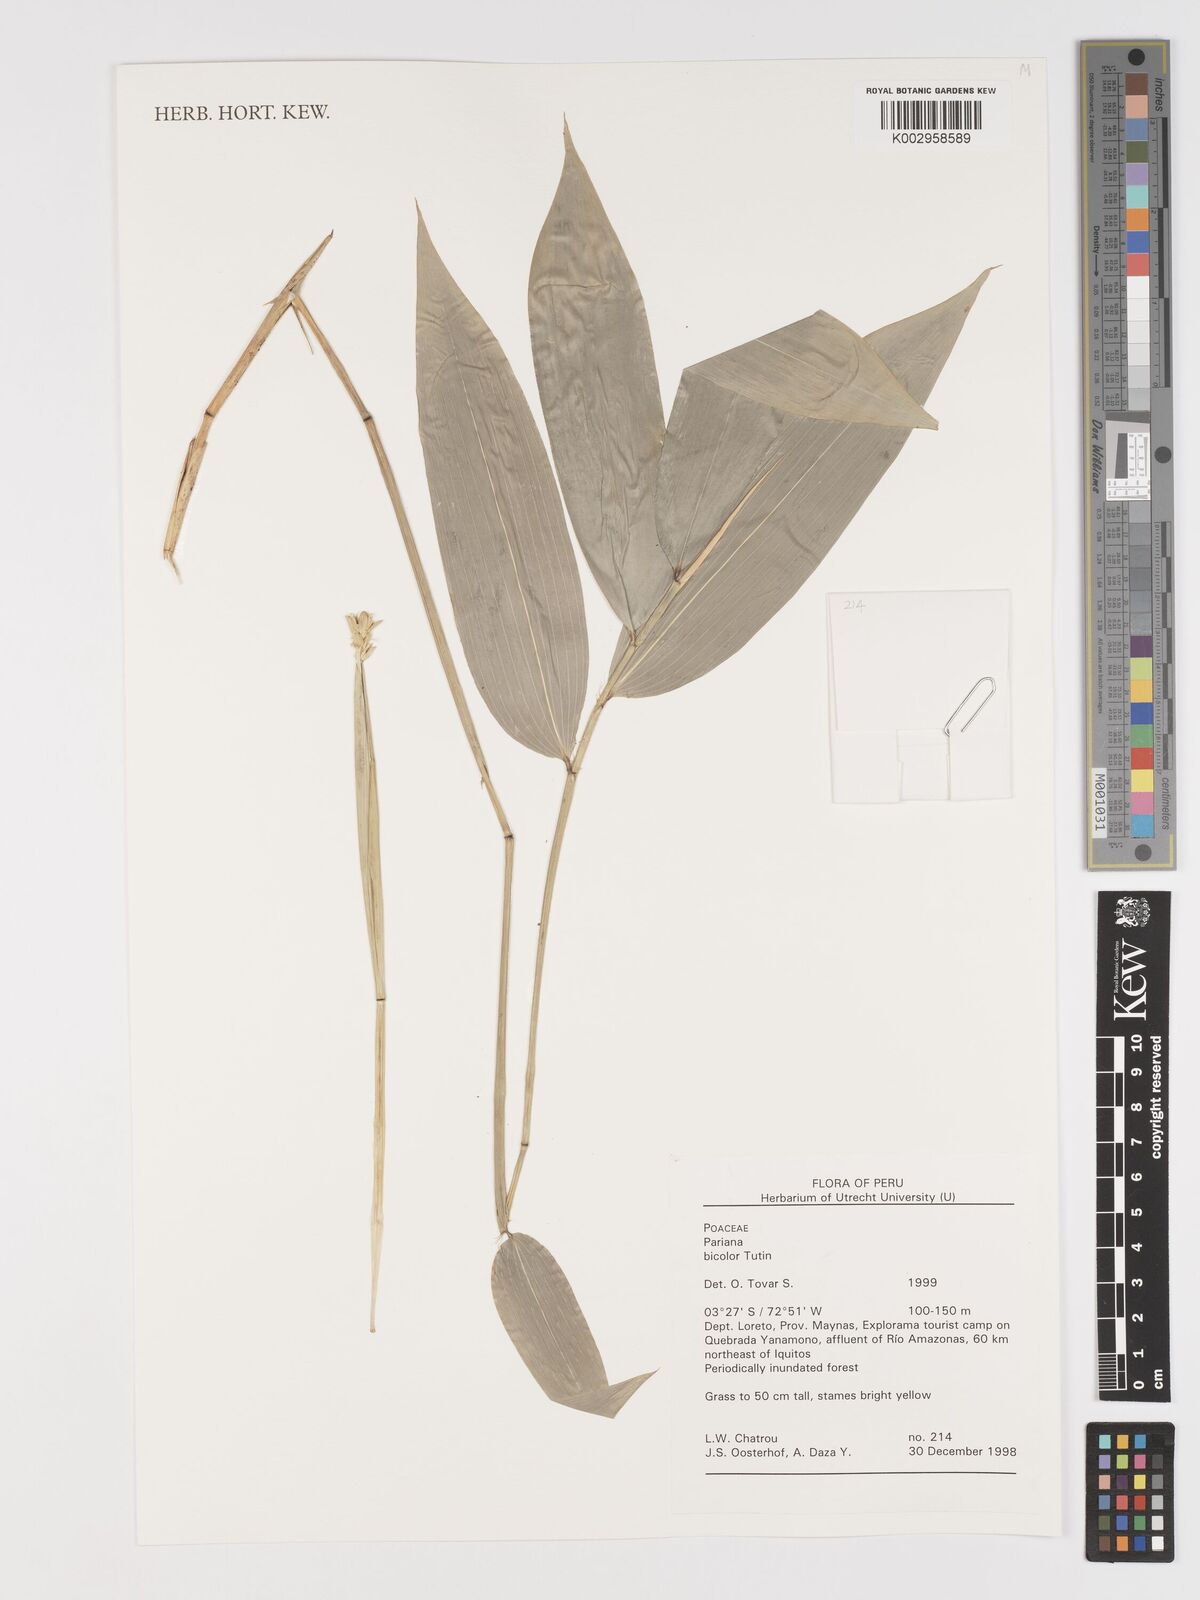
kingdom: Plantae
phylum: Tracheophyta
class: Liliopsida
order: Poales
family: Poaceae
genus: Pariana
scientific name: Pariana bicolor
